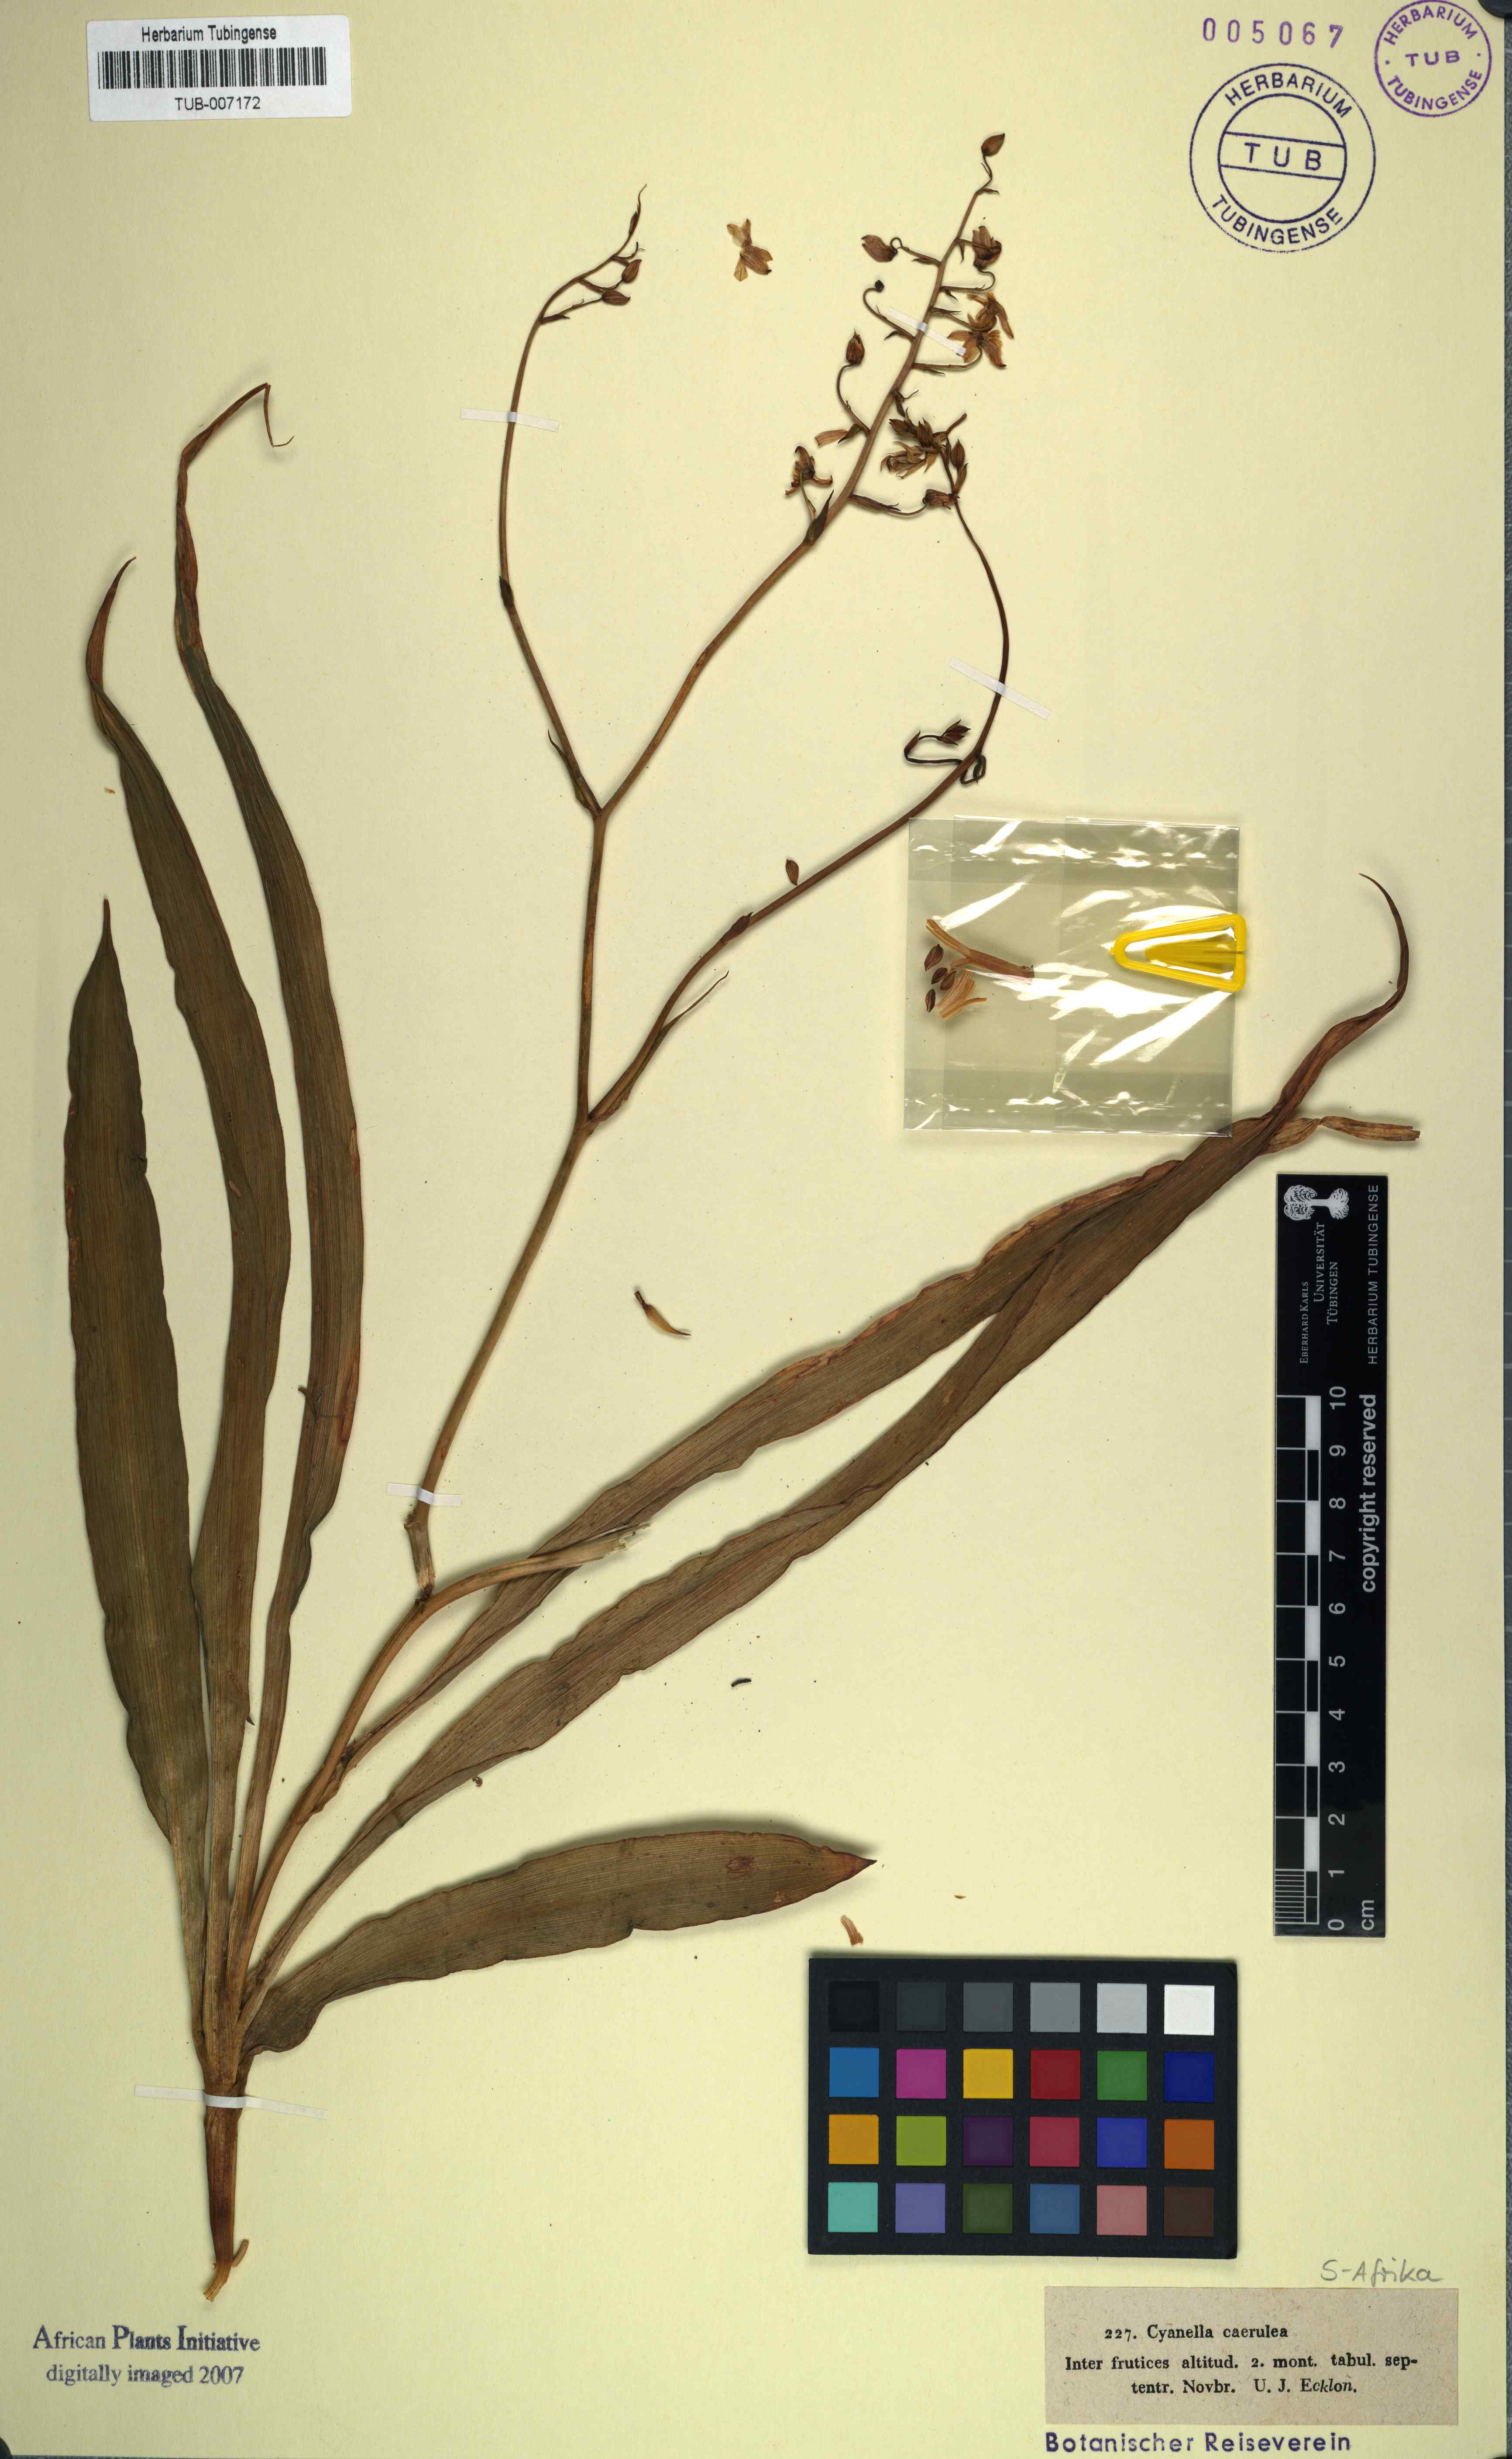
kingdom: Plantae
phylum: Tracheophyta
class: Liliopsida
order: Asparagales
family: Tecophilaeaceae
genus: Cyanella
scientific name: Cyanella hyacinthoides
